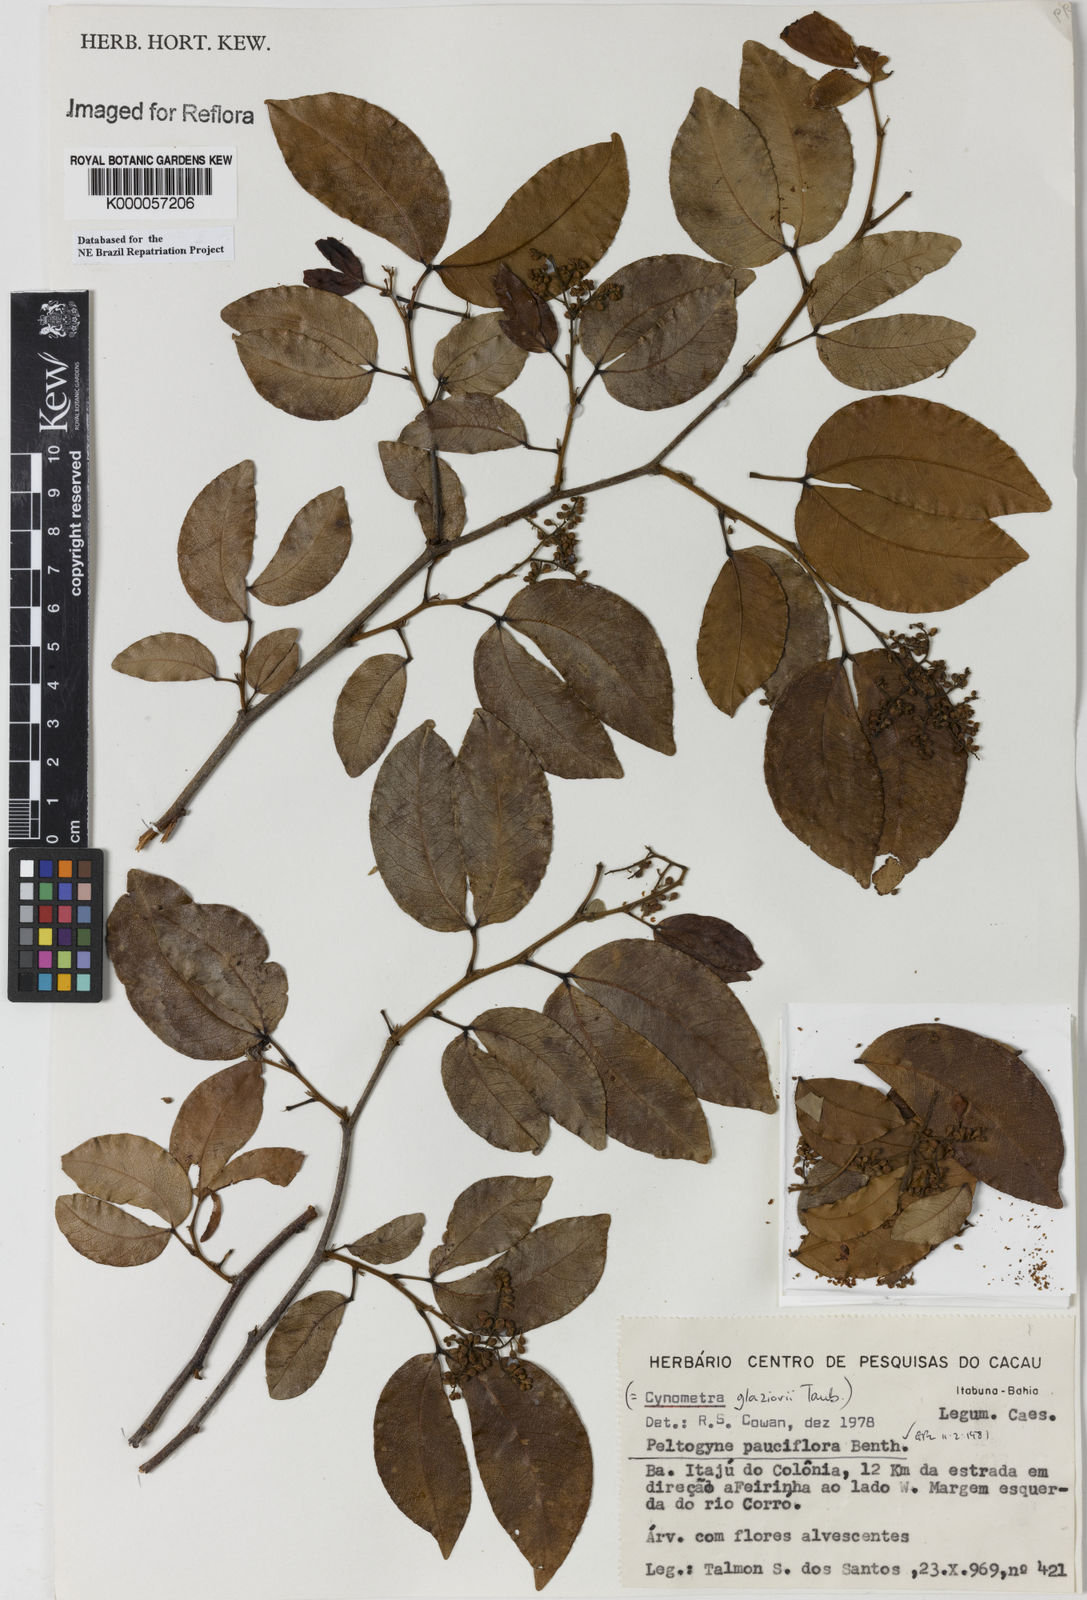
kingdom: Plantae
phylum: Tracheophyta
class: Magnoliopsida
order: Fabales
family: Fabaceae
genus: Peltogyne
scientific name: Peltogyne pauciflora
